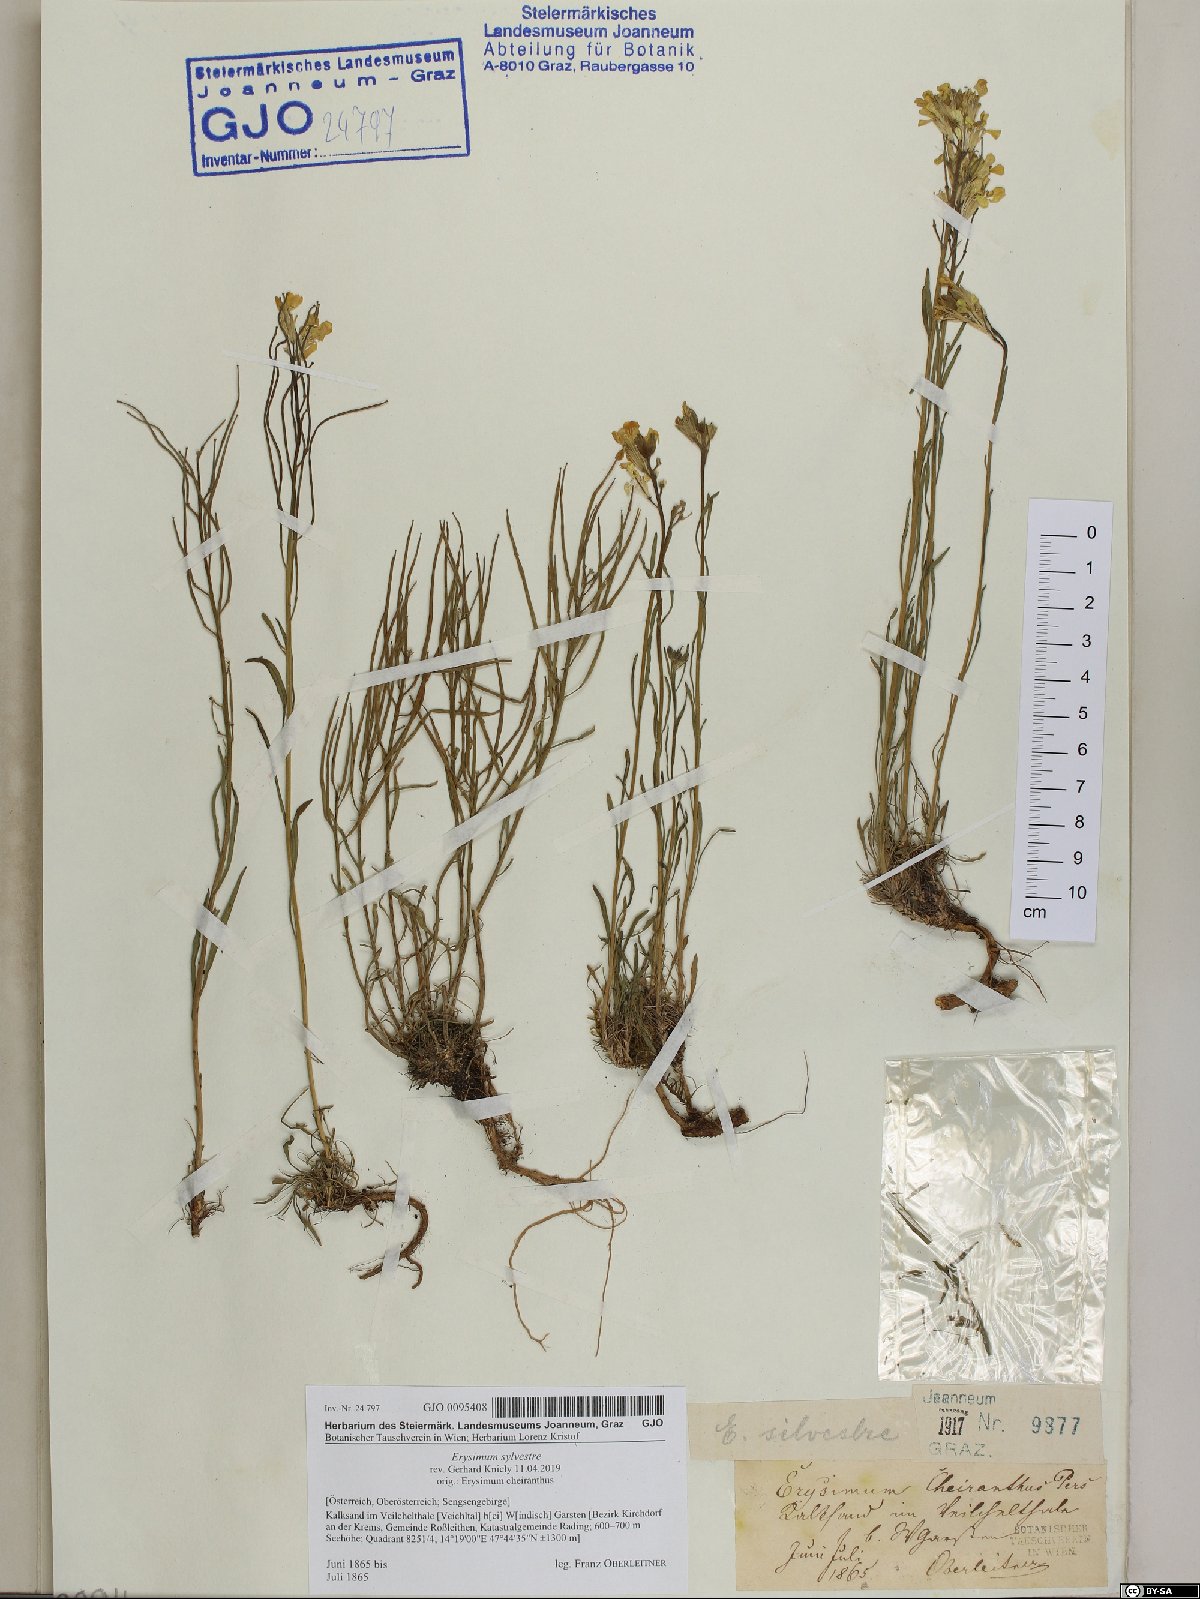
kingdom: Plantae
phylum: Tracheophyta
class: Magnoliopsida
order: Brassicales
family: Brassicaceae
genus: Erysimum
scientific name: Erysimum sylvestre
